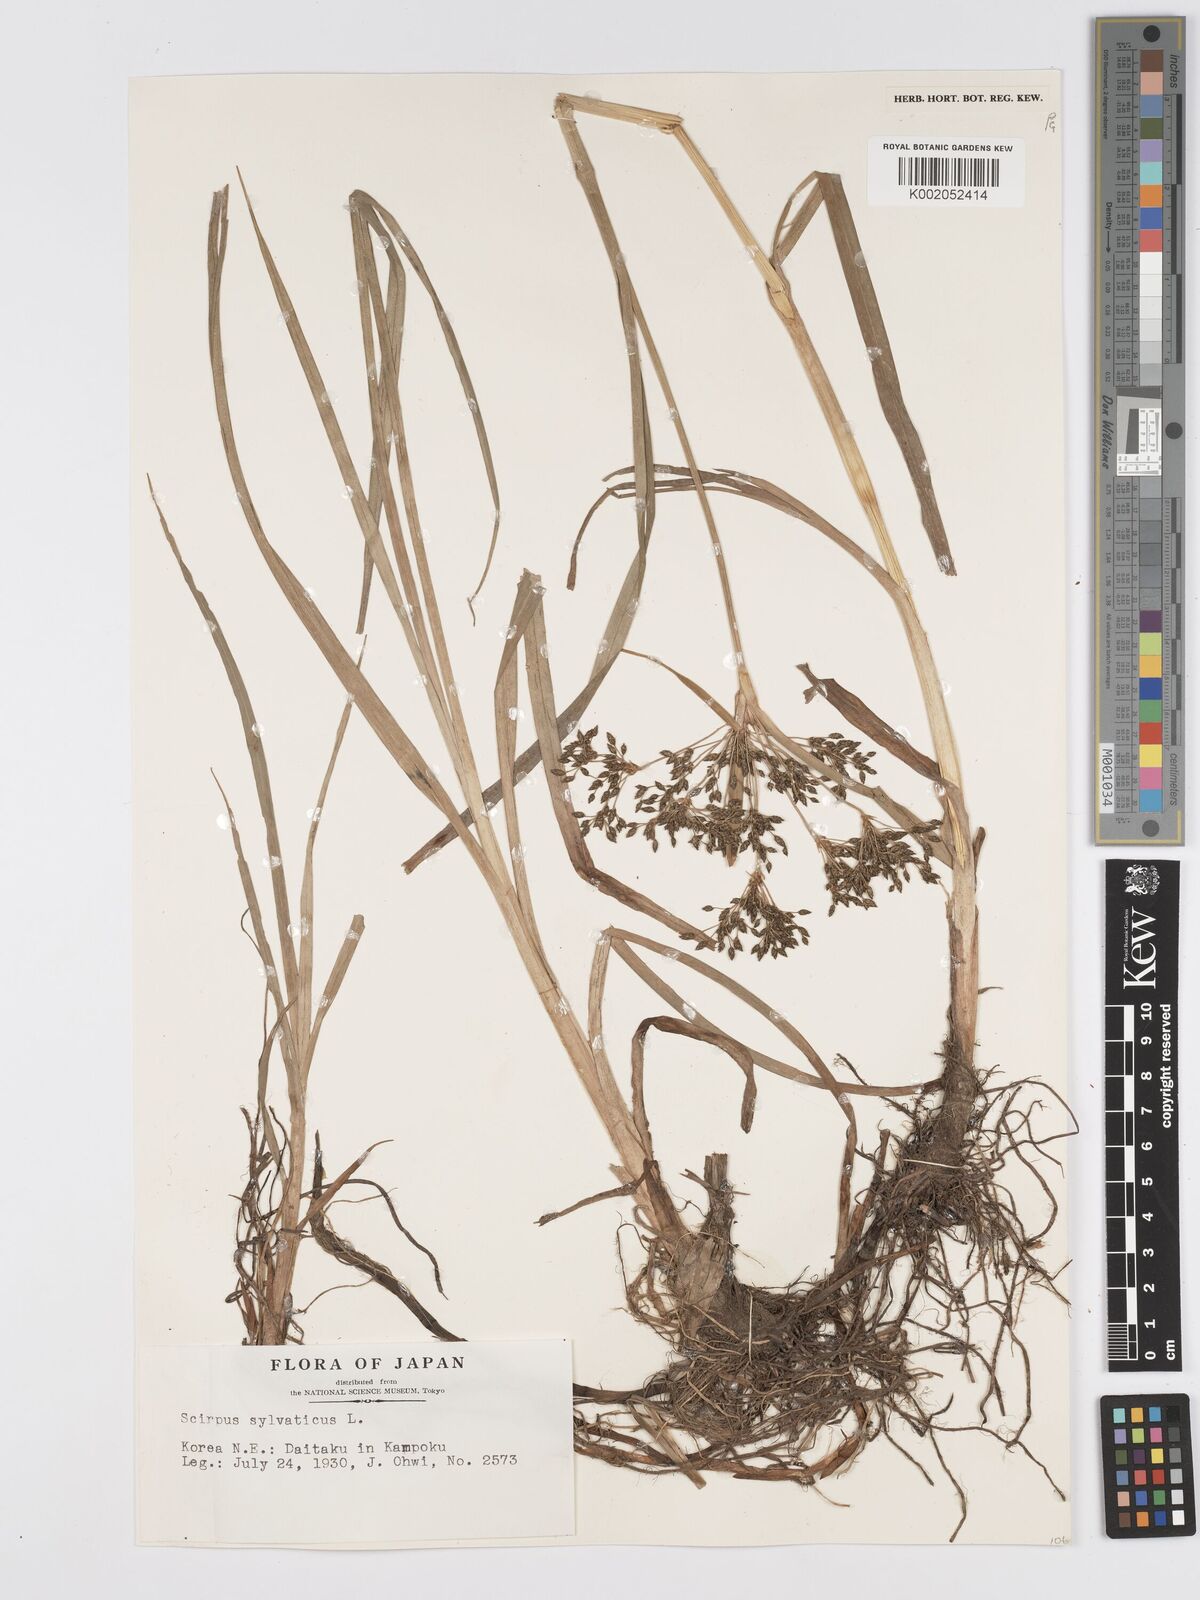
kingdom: Plantae
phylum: Tracheophyta
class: Liliopsida
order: Poales
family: Cyperaceae
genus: Scirpus
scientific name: Scirpus sylvaticus
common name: Wood club-rush
